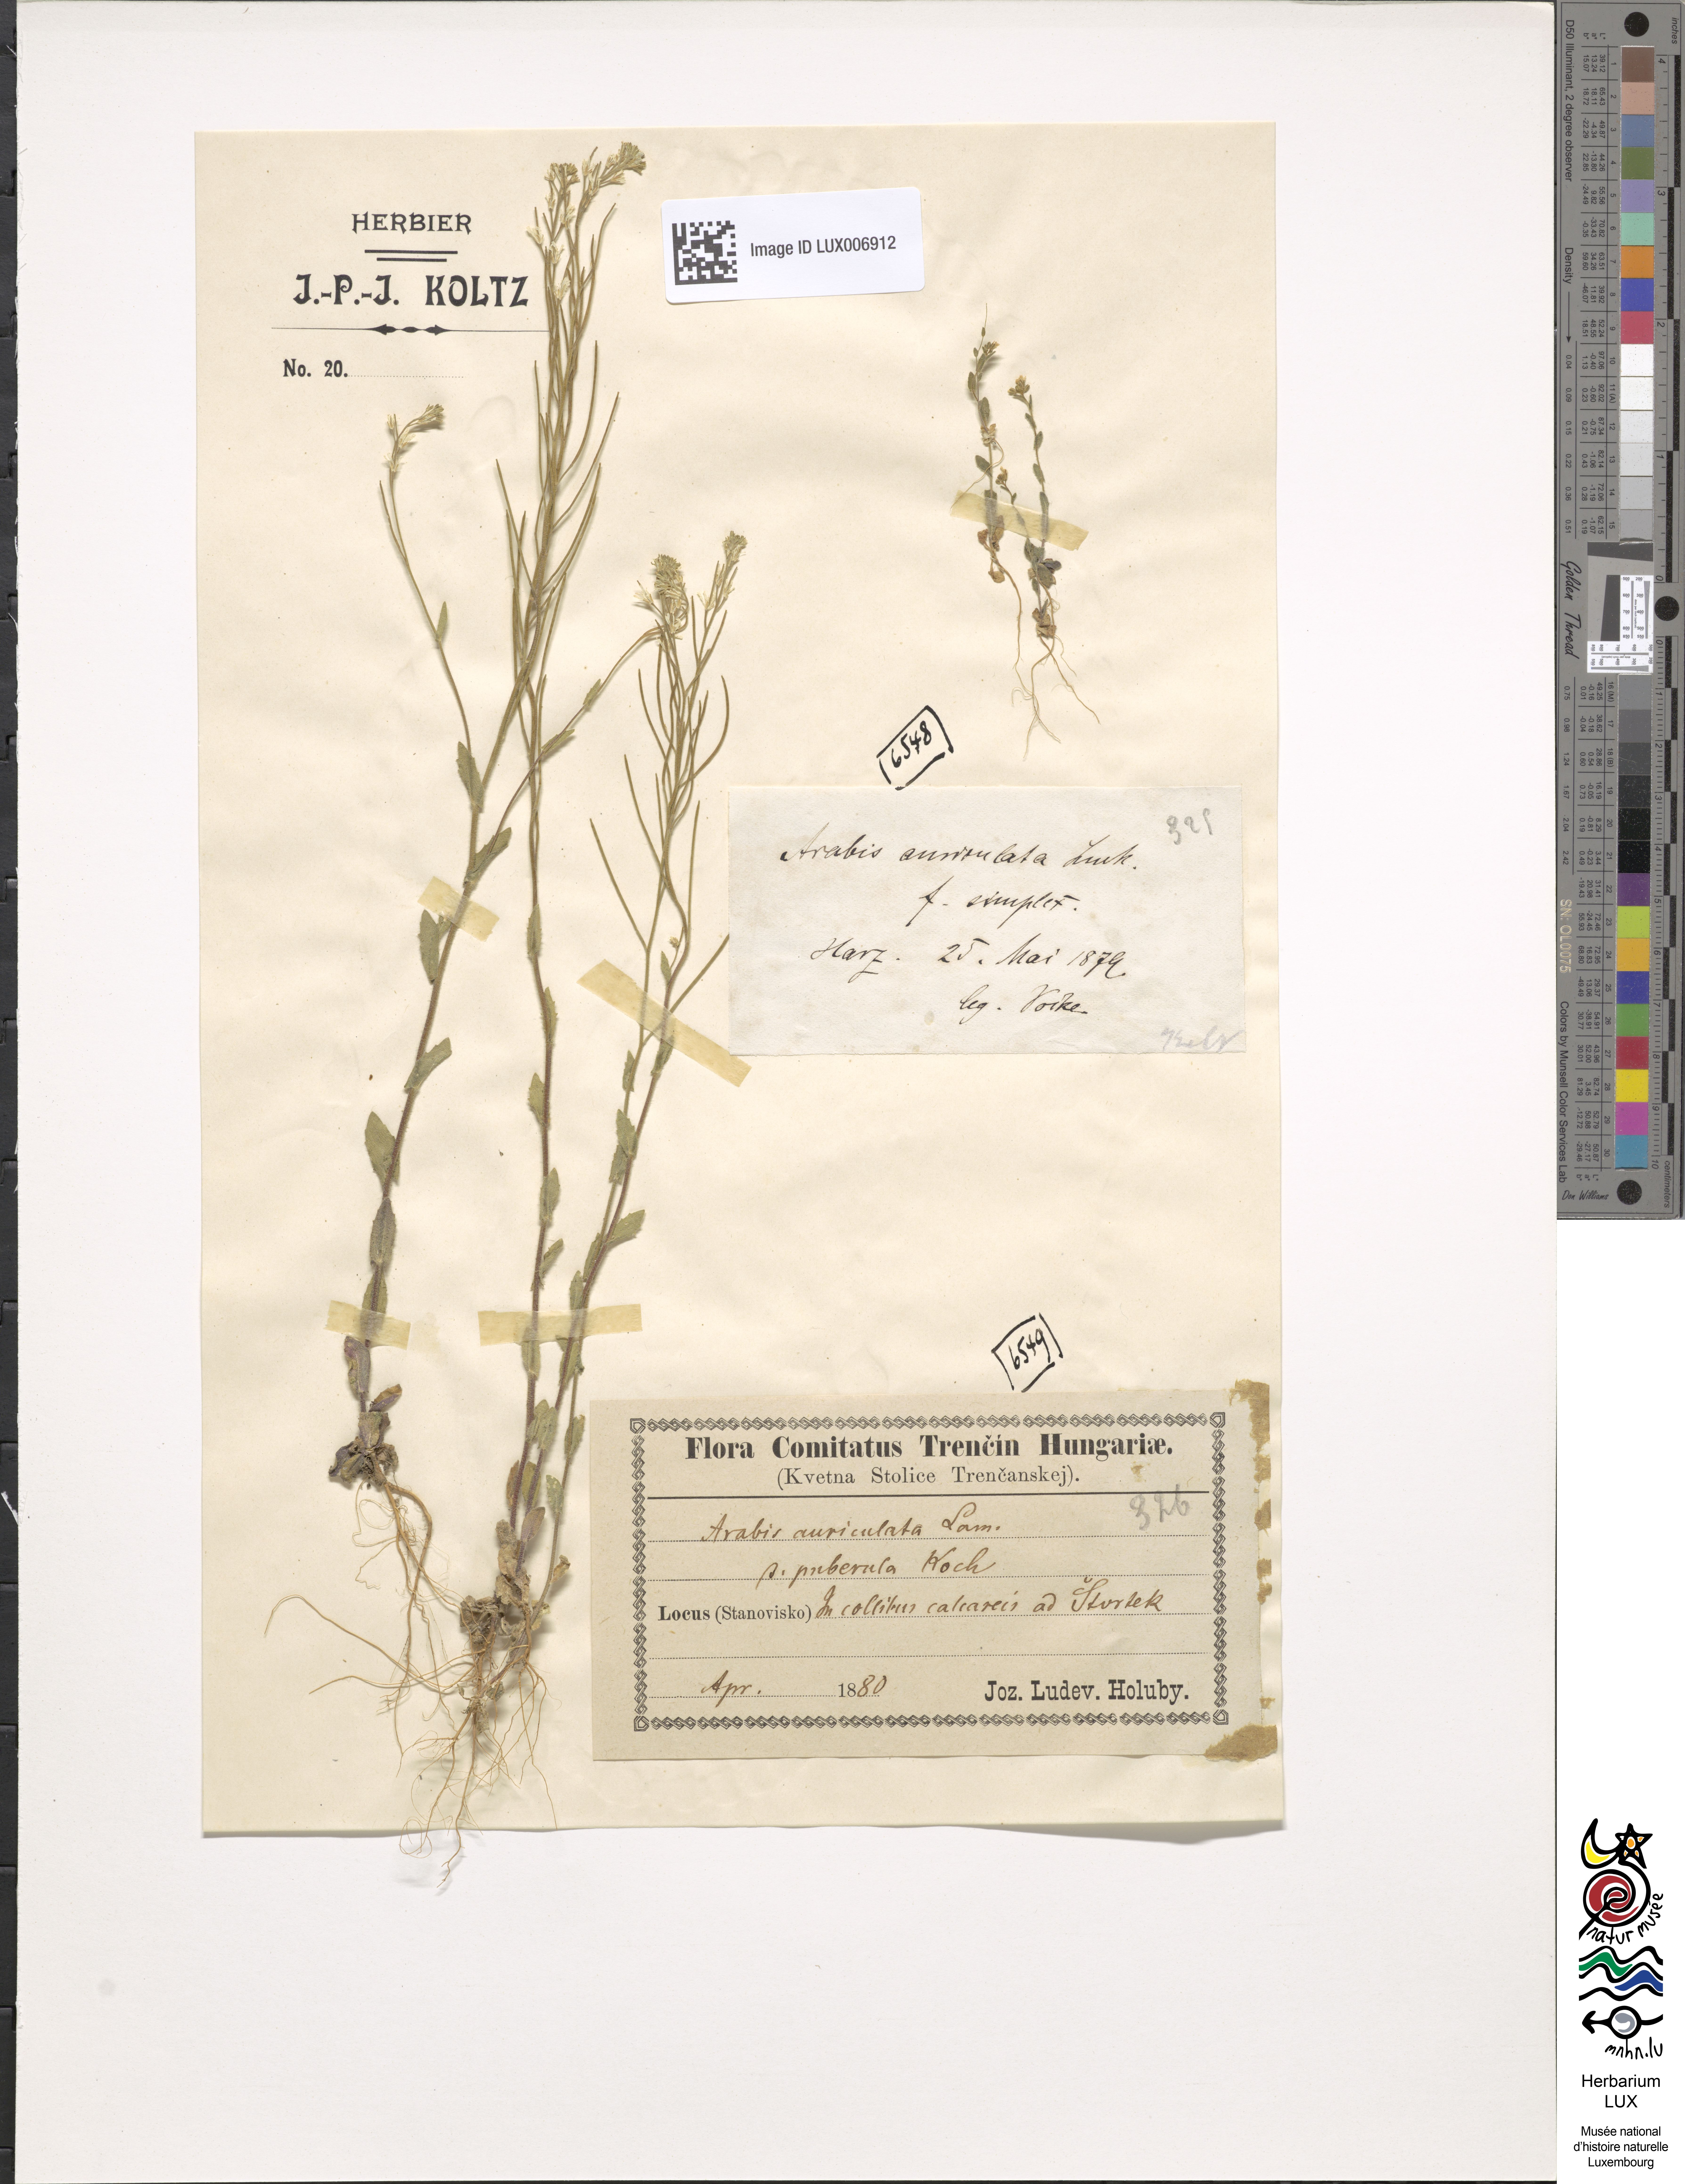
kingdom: Plantae
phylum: Tracheophyta
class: Magnoliopsida
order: Brassicales
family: Brassicaceae
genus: Arabis
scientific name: Arabis auriculata
